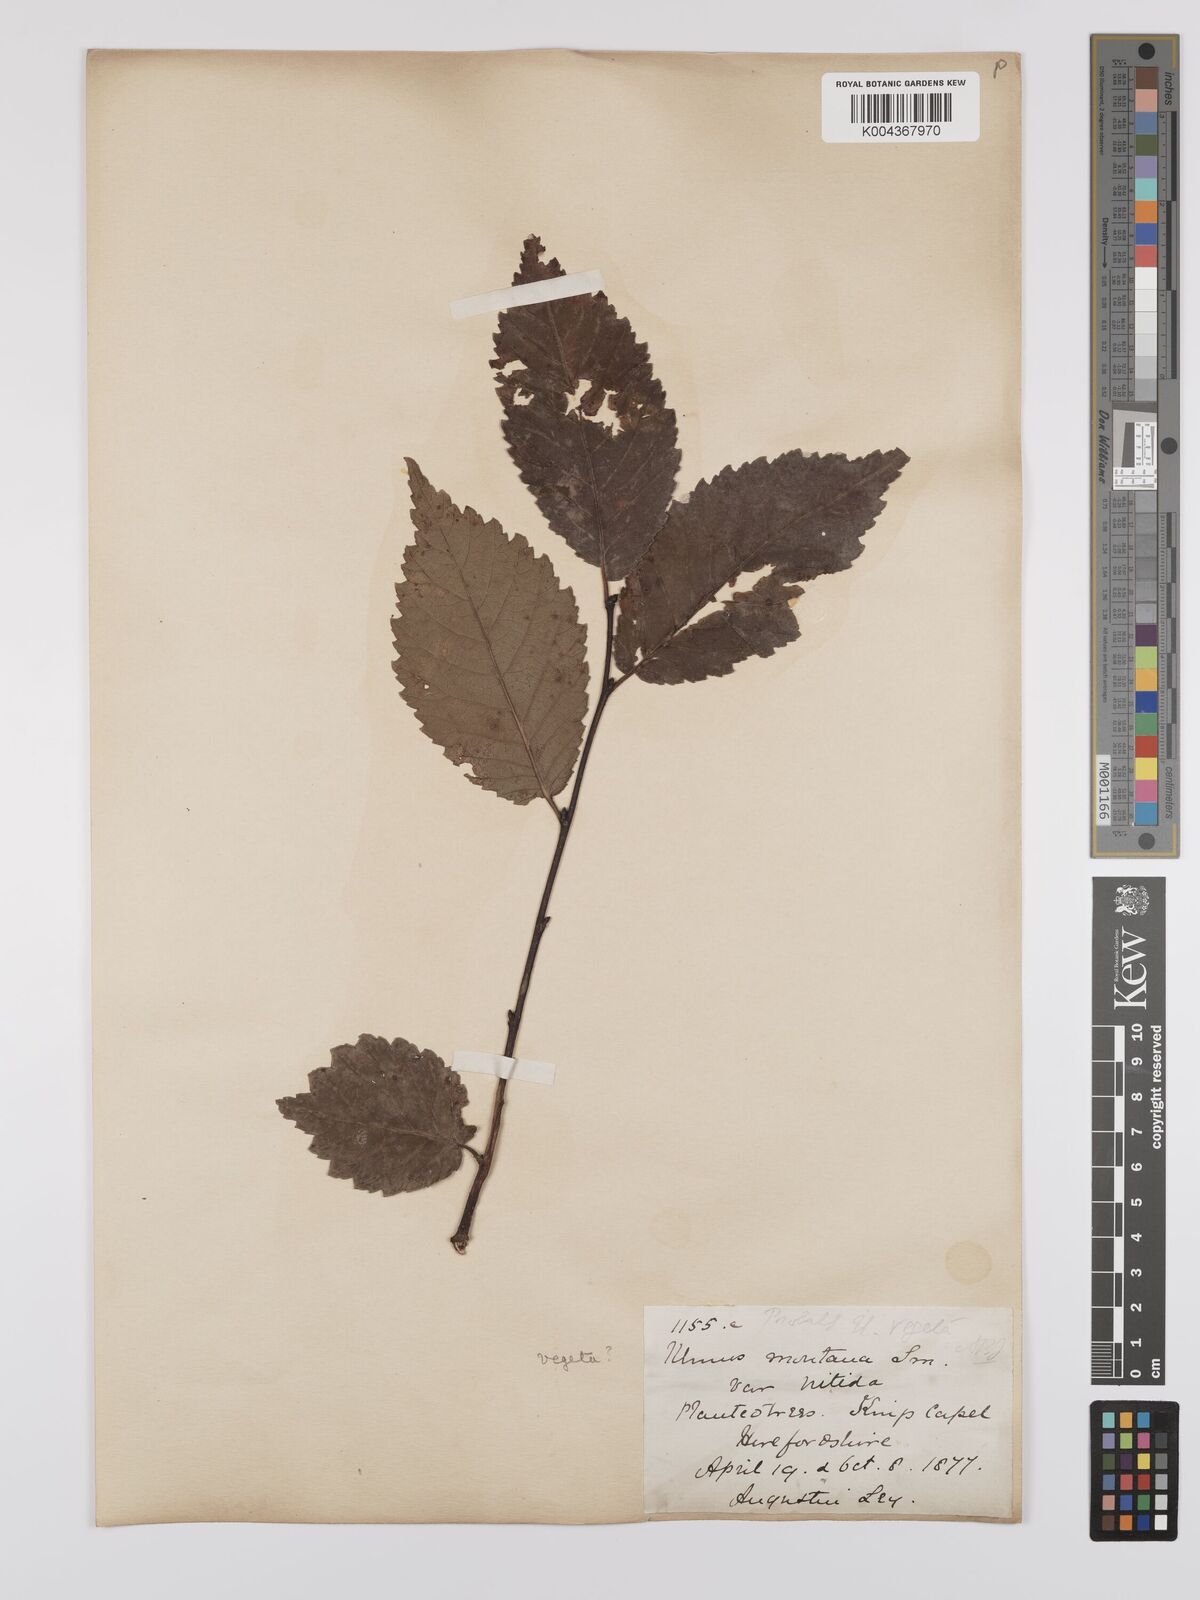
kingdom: Plantae
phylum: Tracheophyta
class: Magnoliopsida
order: Rosales
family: Ulmaceae
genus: Ulmus
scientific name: Ulmus glabra
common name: Wych elm
